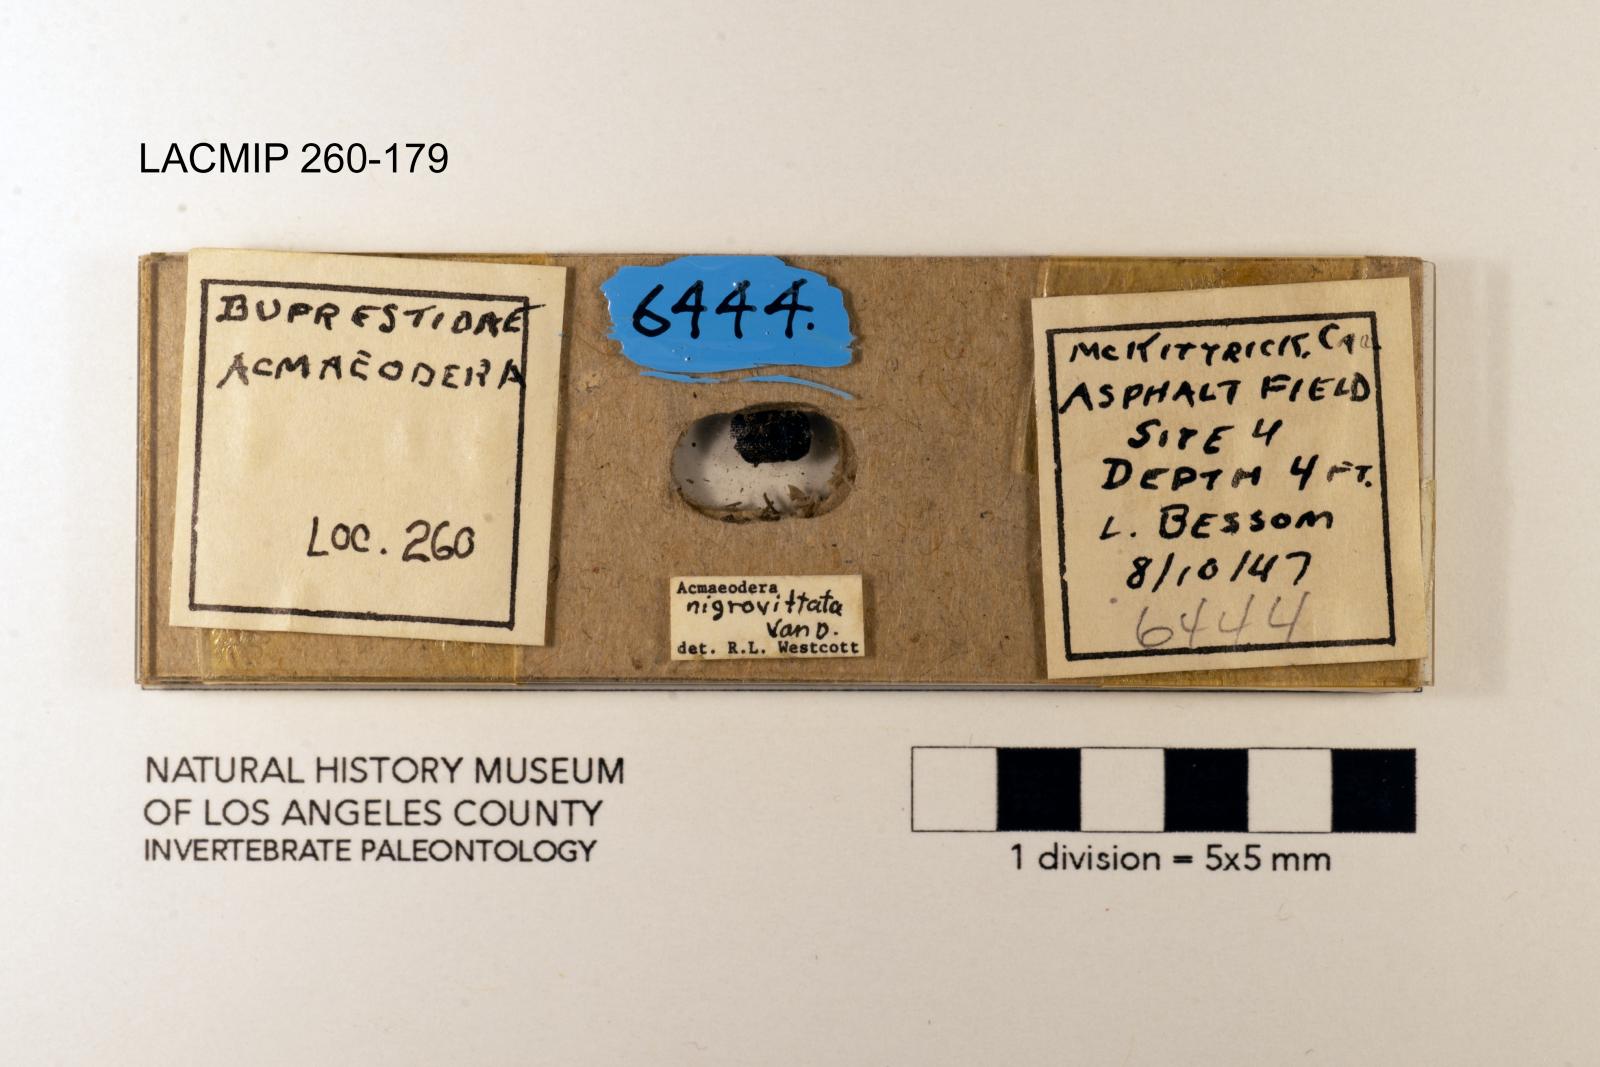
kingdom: Animalia
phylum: Arthropoda
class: Insecta
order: Coleoptera
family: Buprestidae
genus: Acmaeodera
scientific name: Acmaeodera nigrovittata
